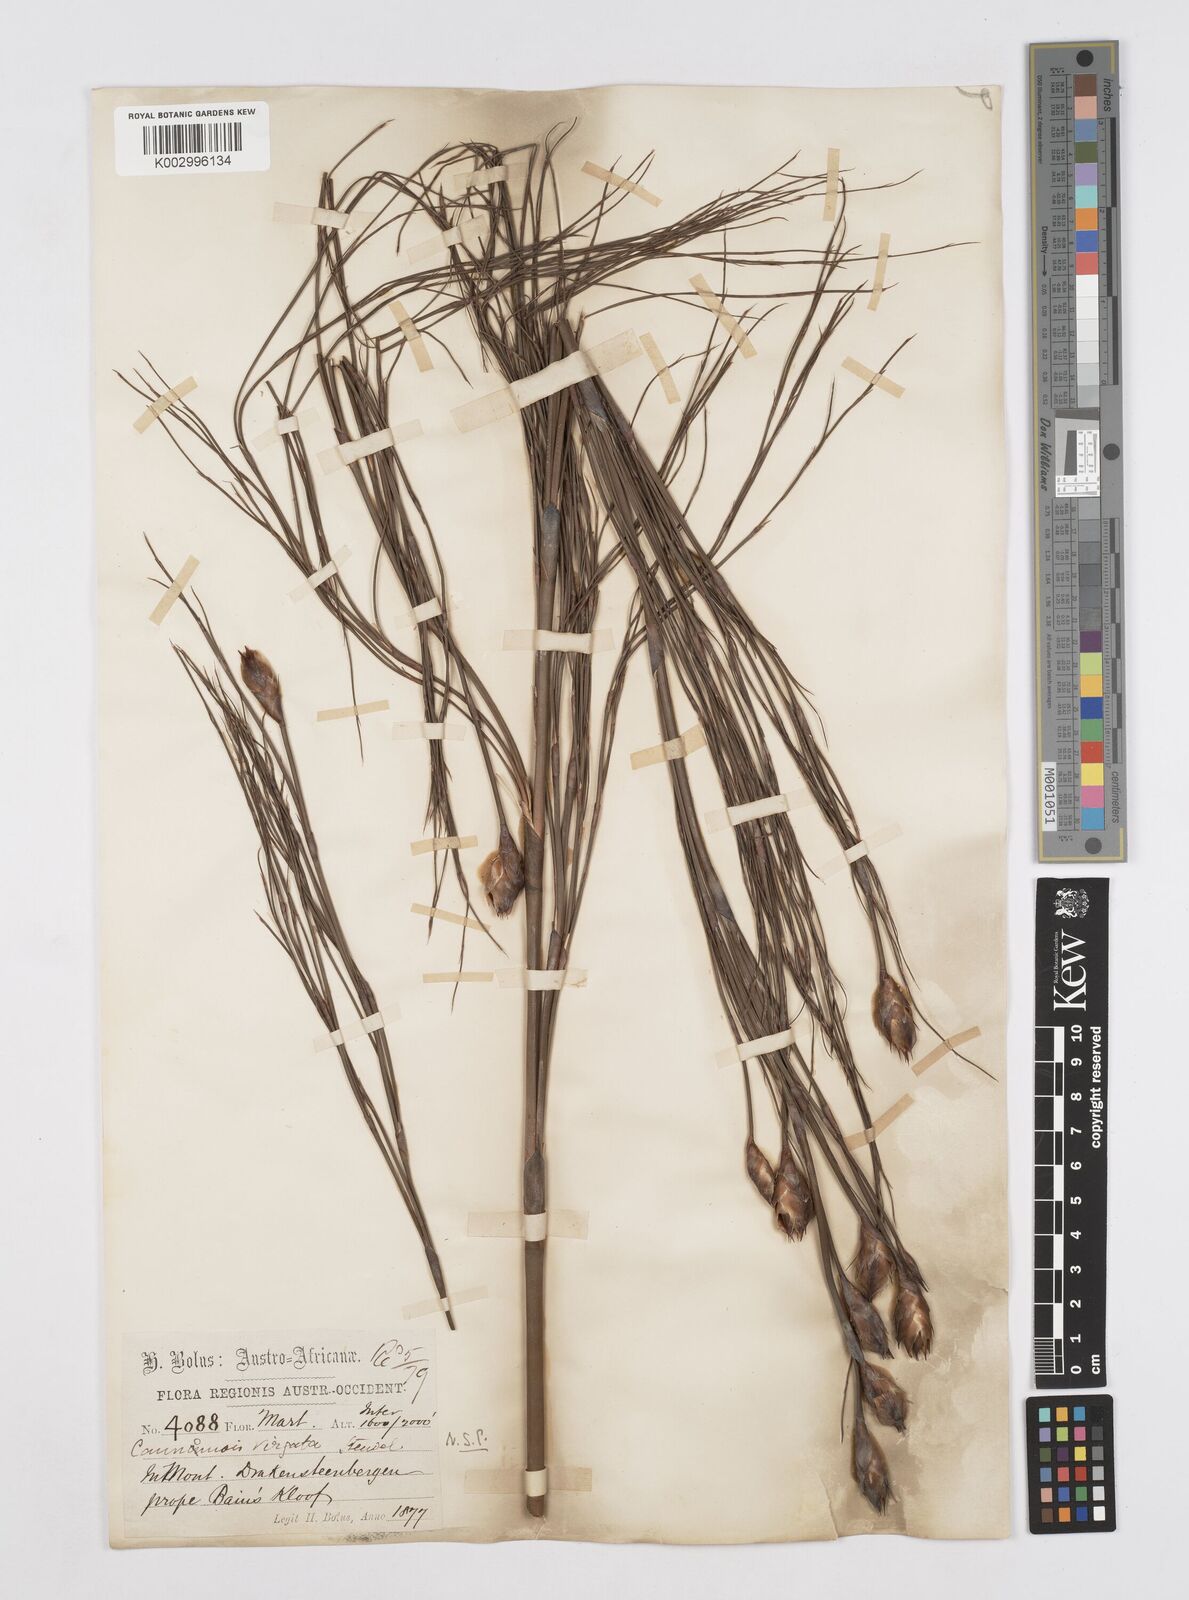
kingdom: Plantae
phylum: Tracheophyta
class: Liliopsida
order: Poales
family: Restionaceae
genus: Cannomois
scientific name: Cannomois virgata
